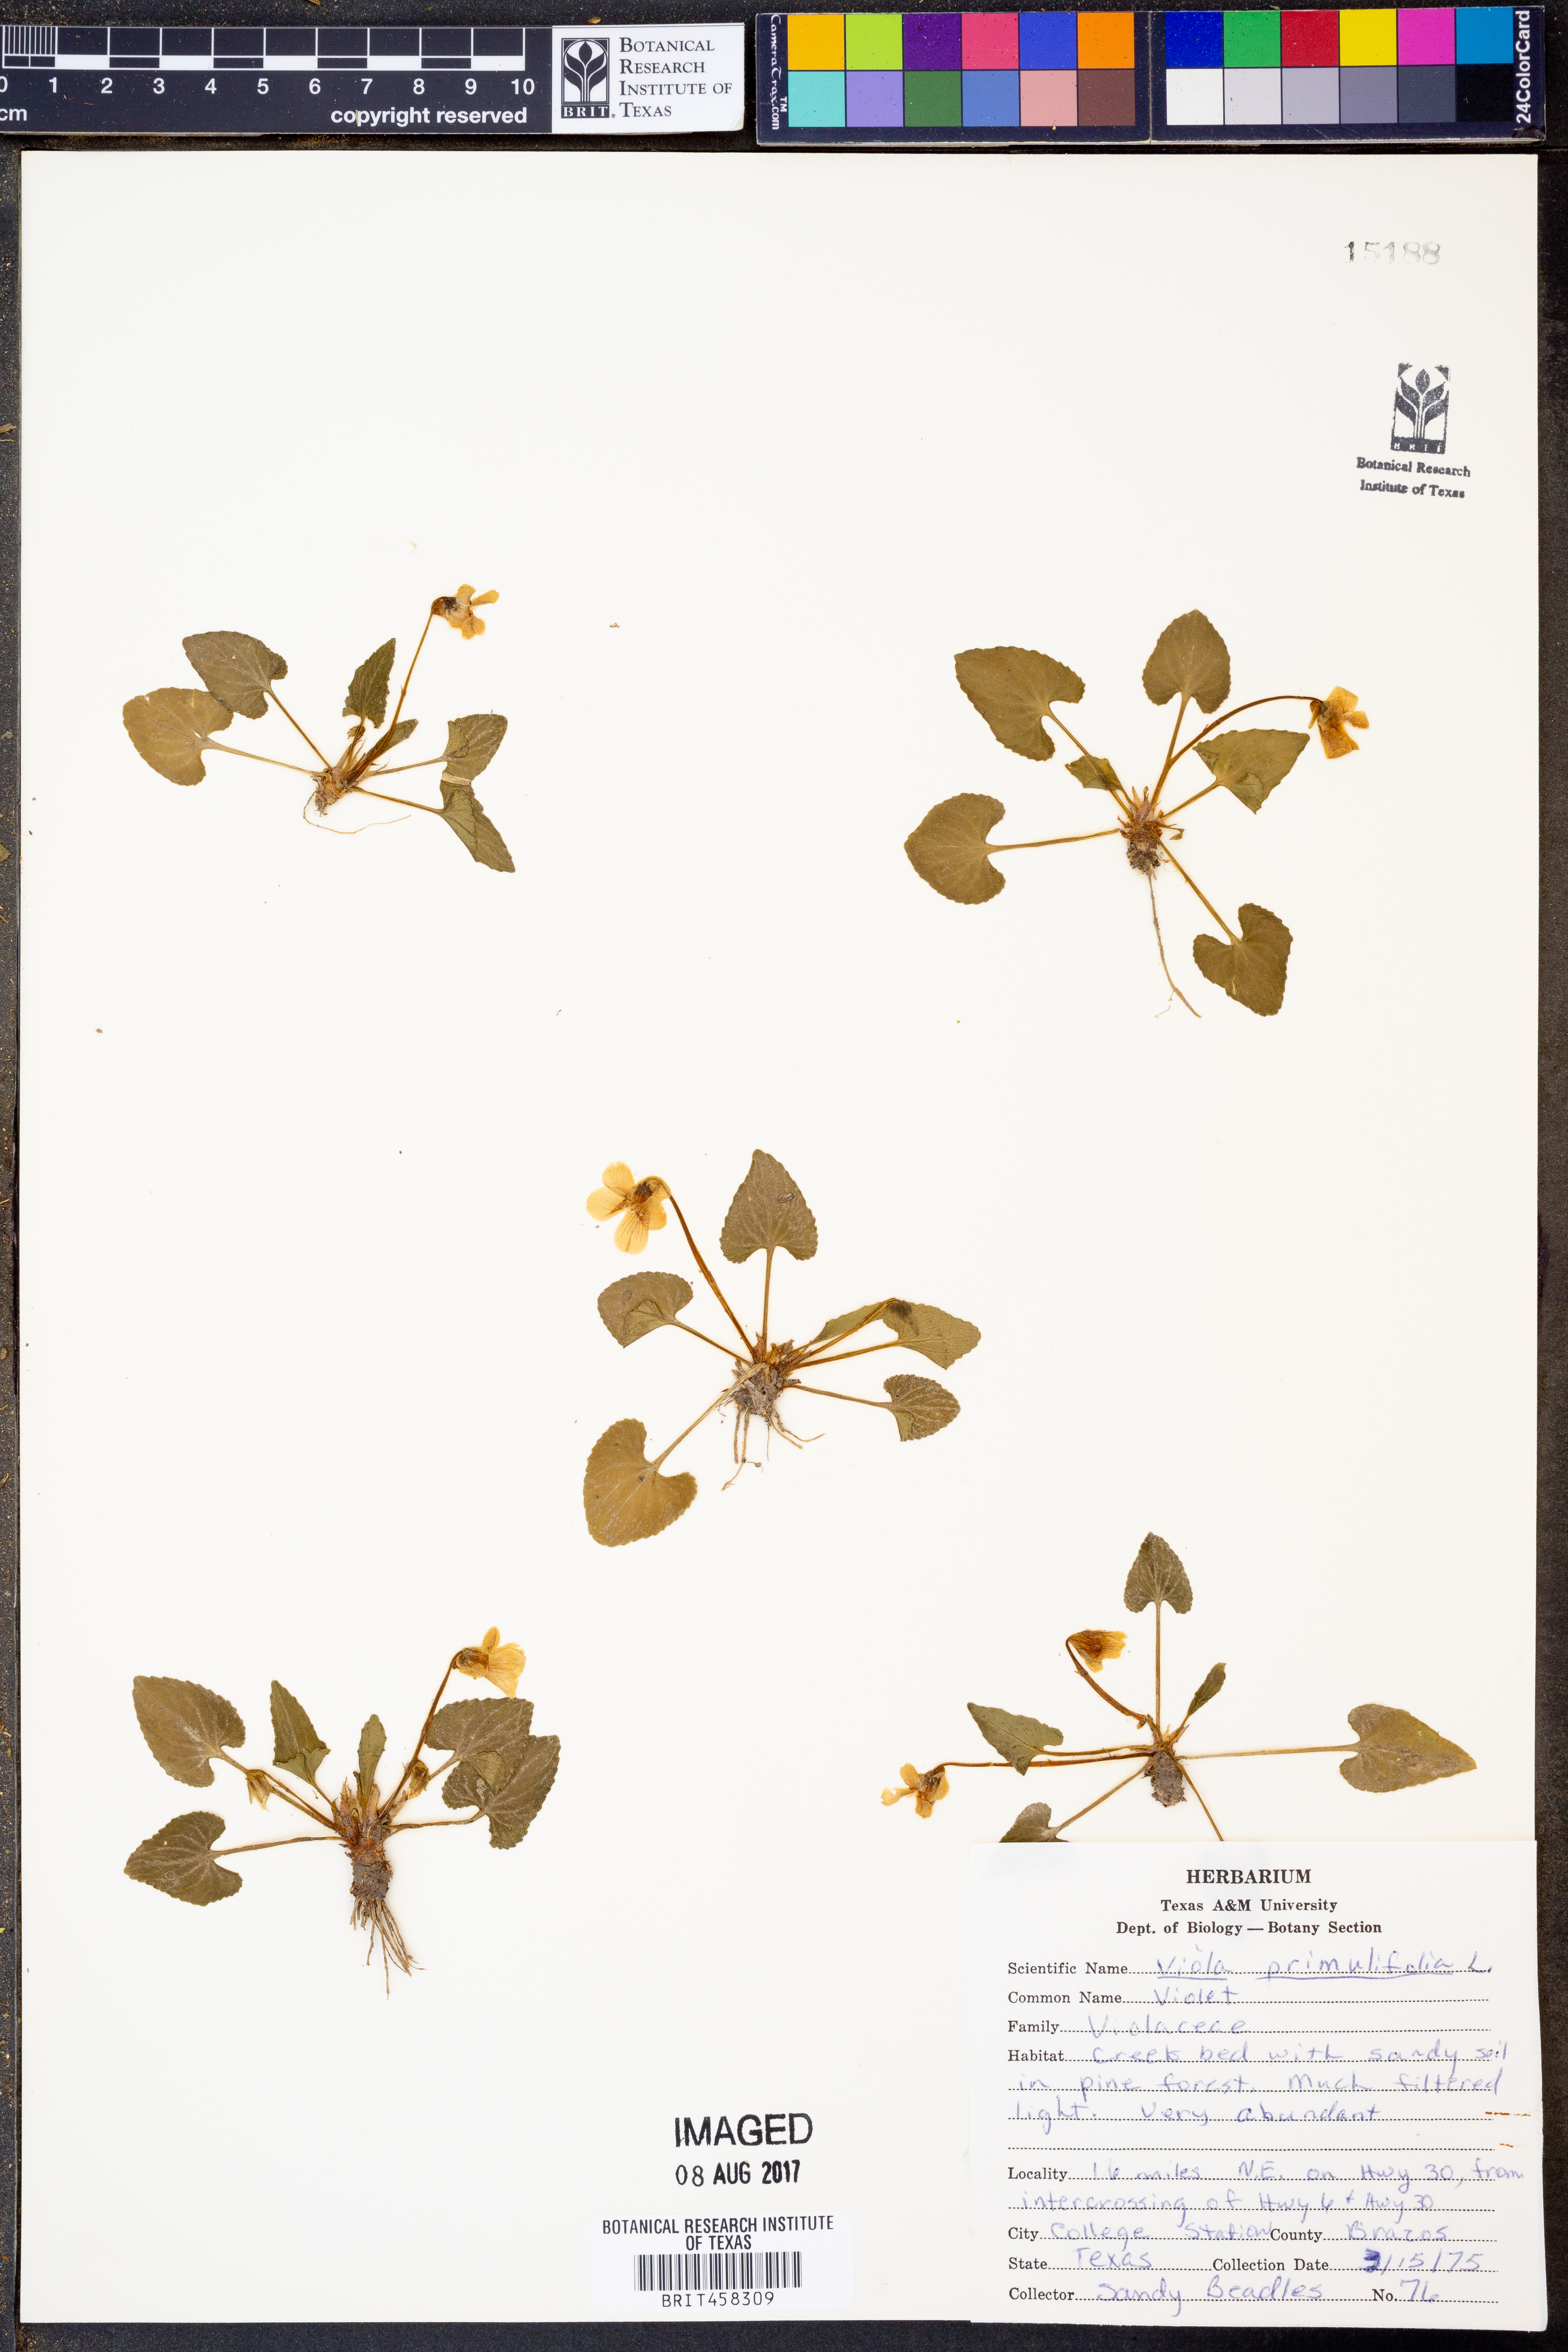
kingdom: Plantae
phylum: Tracheophyta
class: Magnoliopsida
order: Malpighiales
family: Violaceae
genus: Viola
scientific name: Viola primulifolia
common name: Primrose-leaf violet
